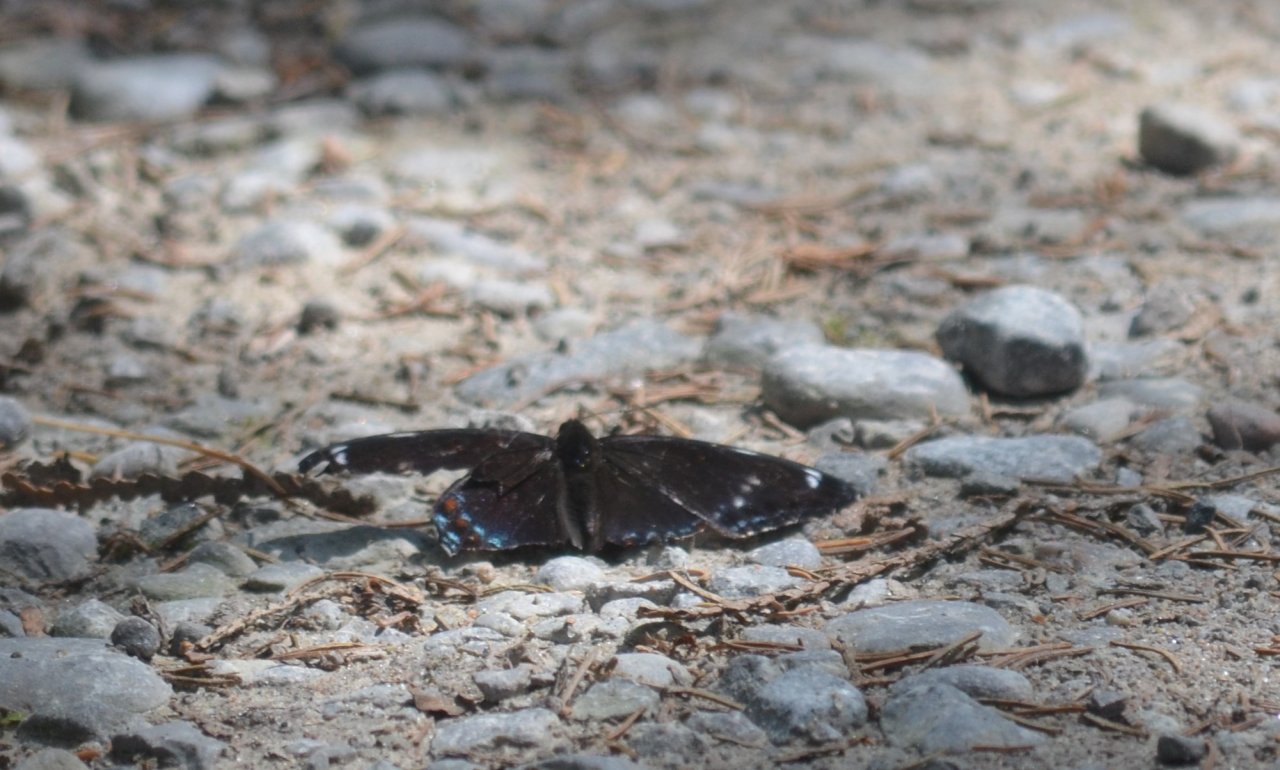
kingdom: Animalia
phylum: Arthropoda
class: Insecta
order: Lepidoptera
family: Nymphalidae
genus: Limenitis
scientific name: Limenitis
